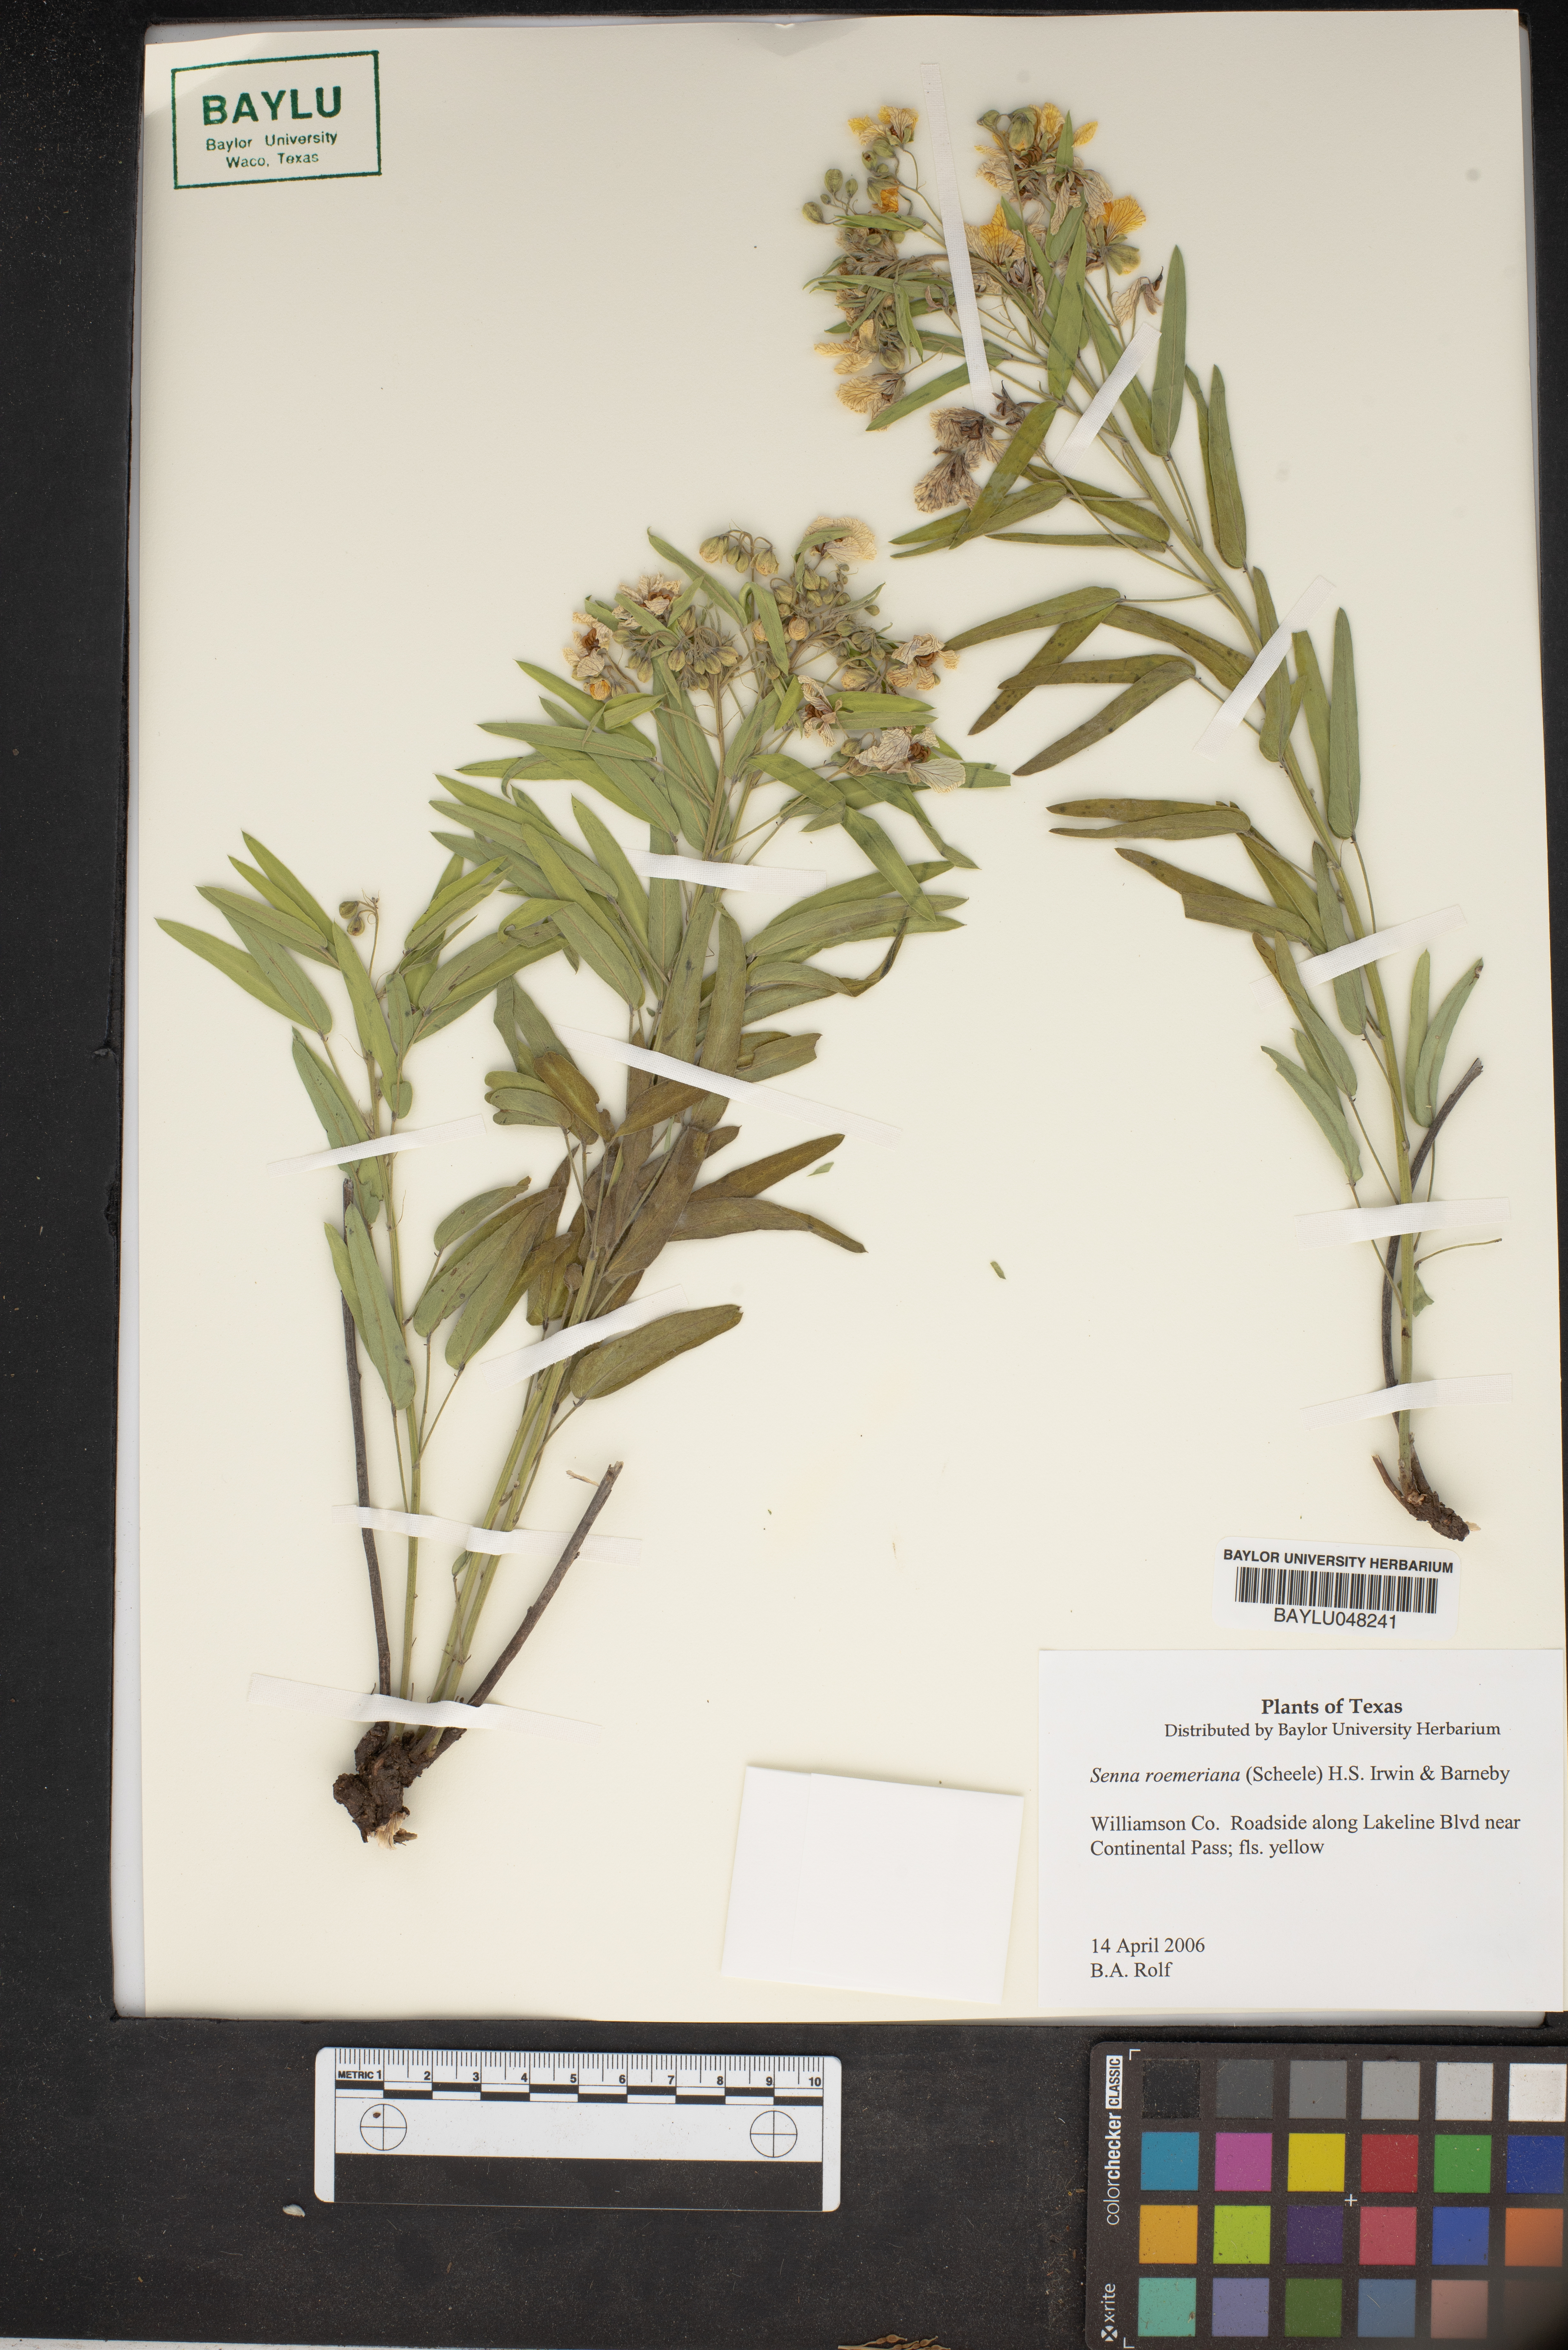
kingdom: Plantae
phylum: Tracheophyta
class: Magnoliopsida
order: Fabales
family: Fabaceae
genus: Senna
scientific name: Senna roemeriana
